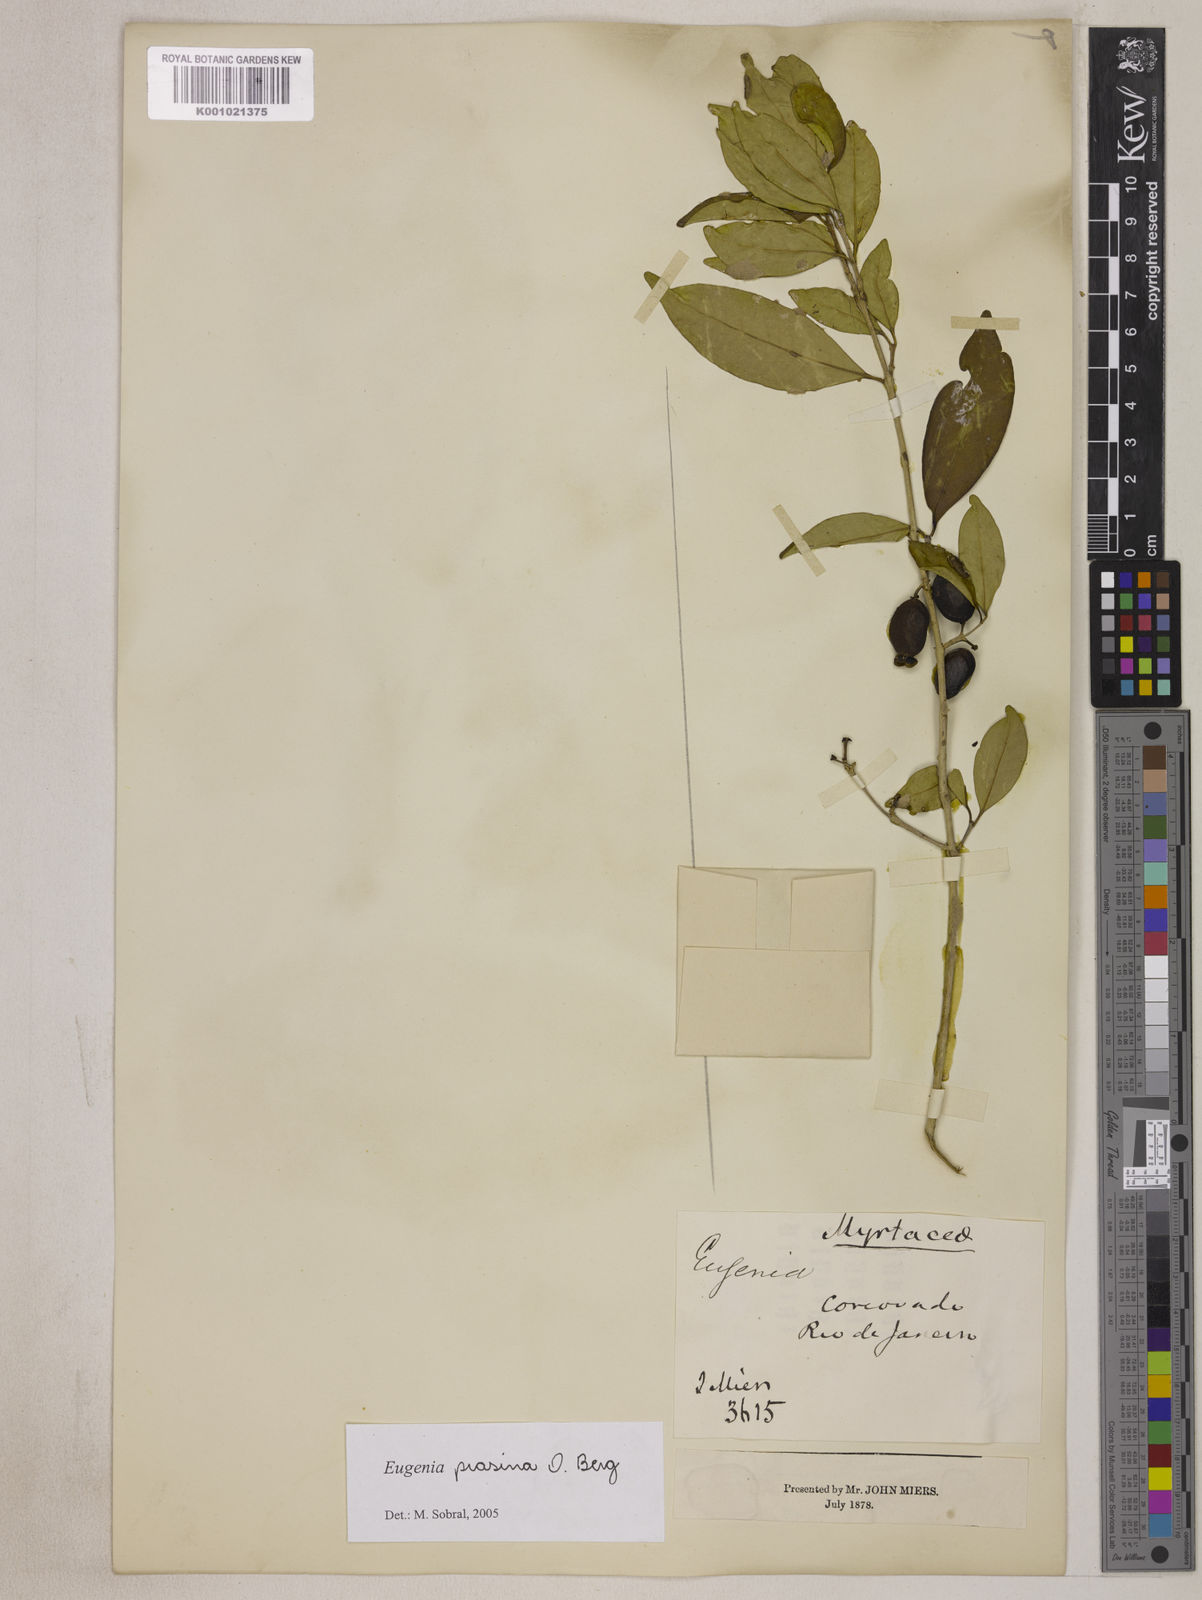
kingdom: Plantae
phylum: Tracheophyta
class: Magnoliopsida
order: Myrtales
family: Myrtaceae
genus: Eugenia
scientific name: Eugenia prasina
